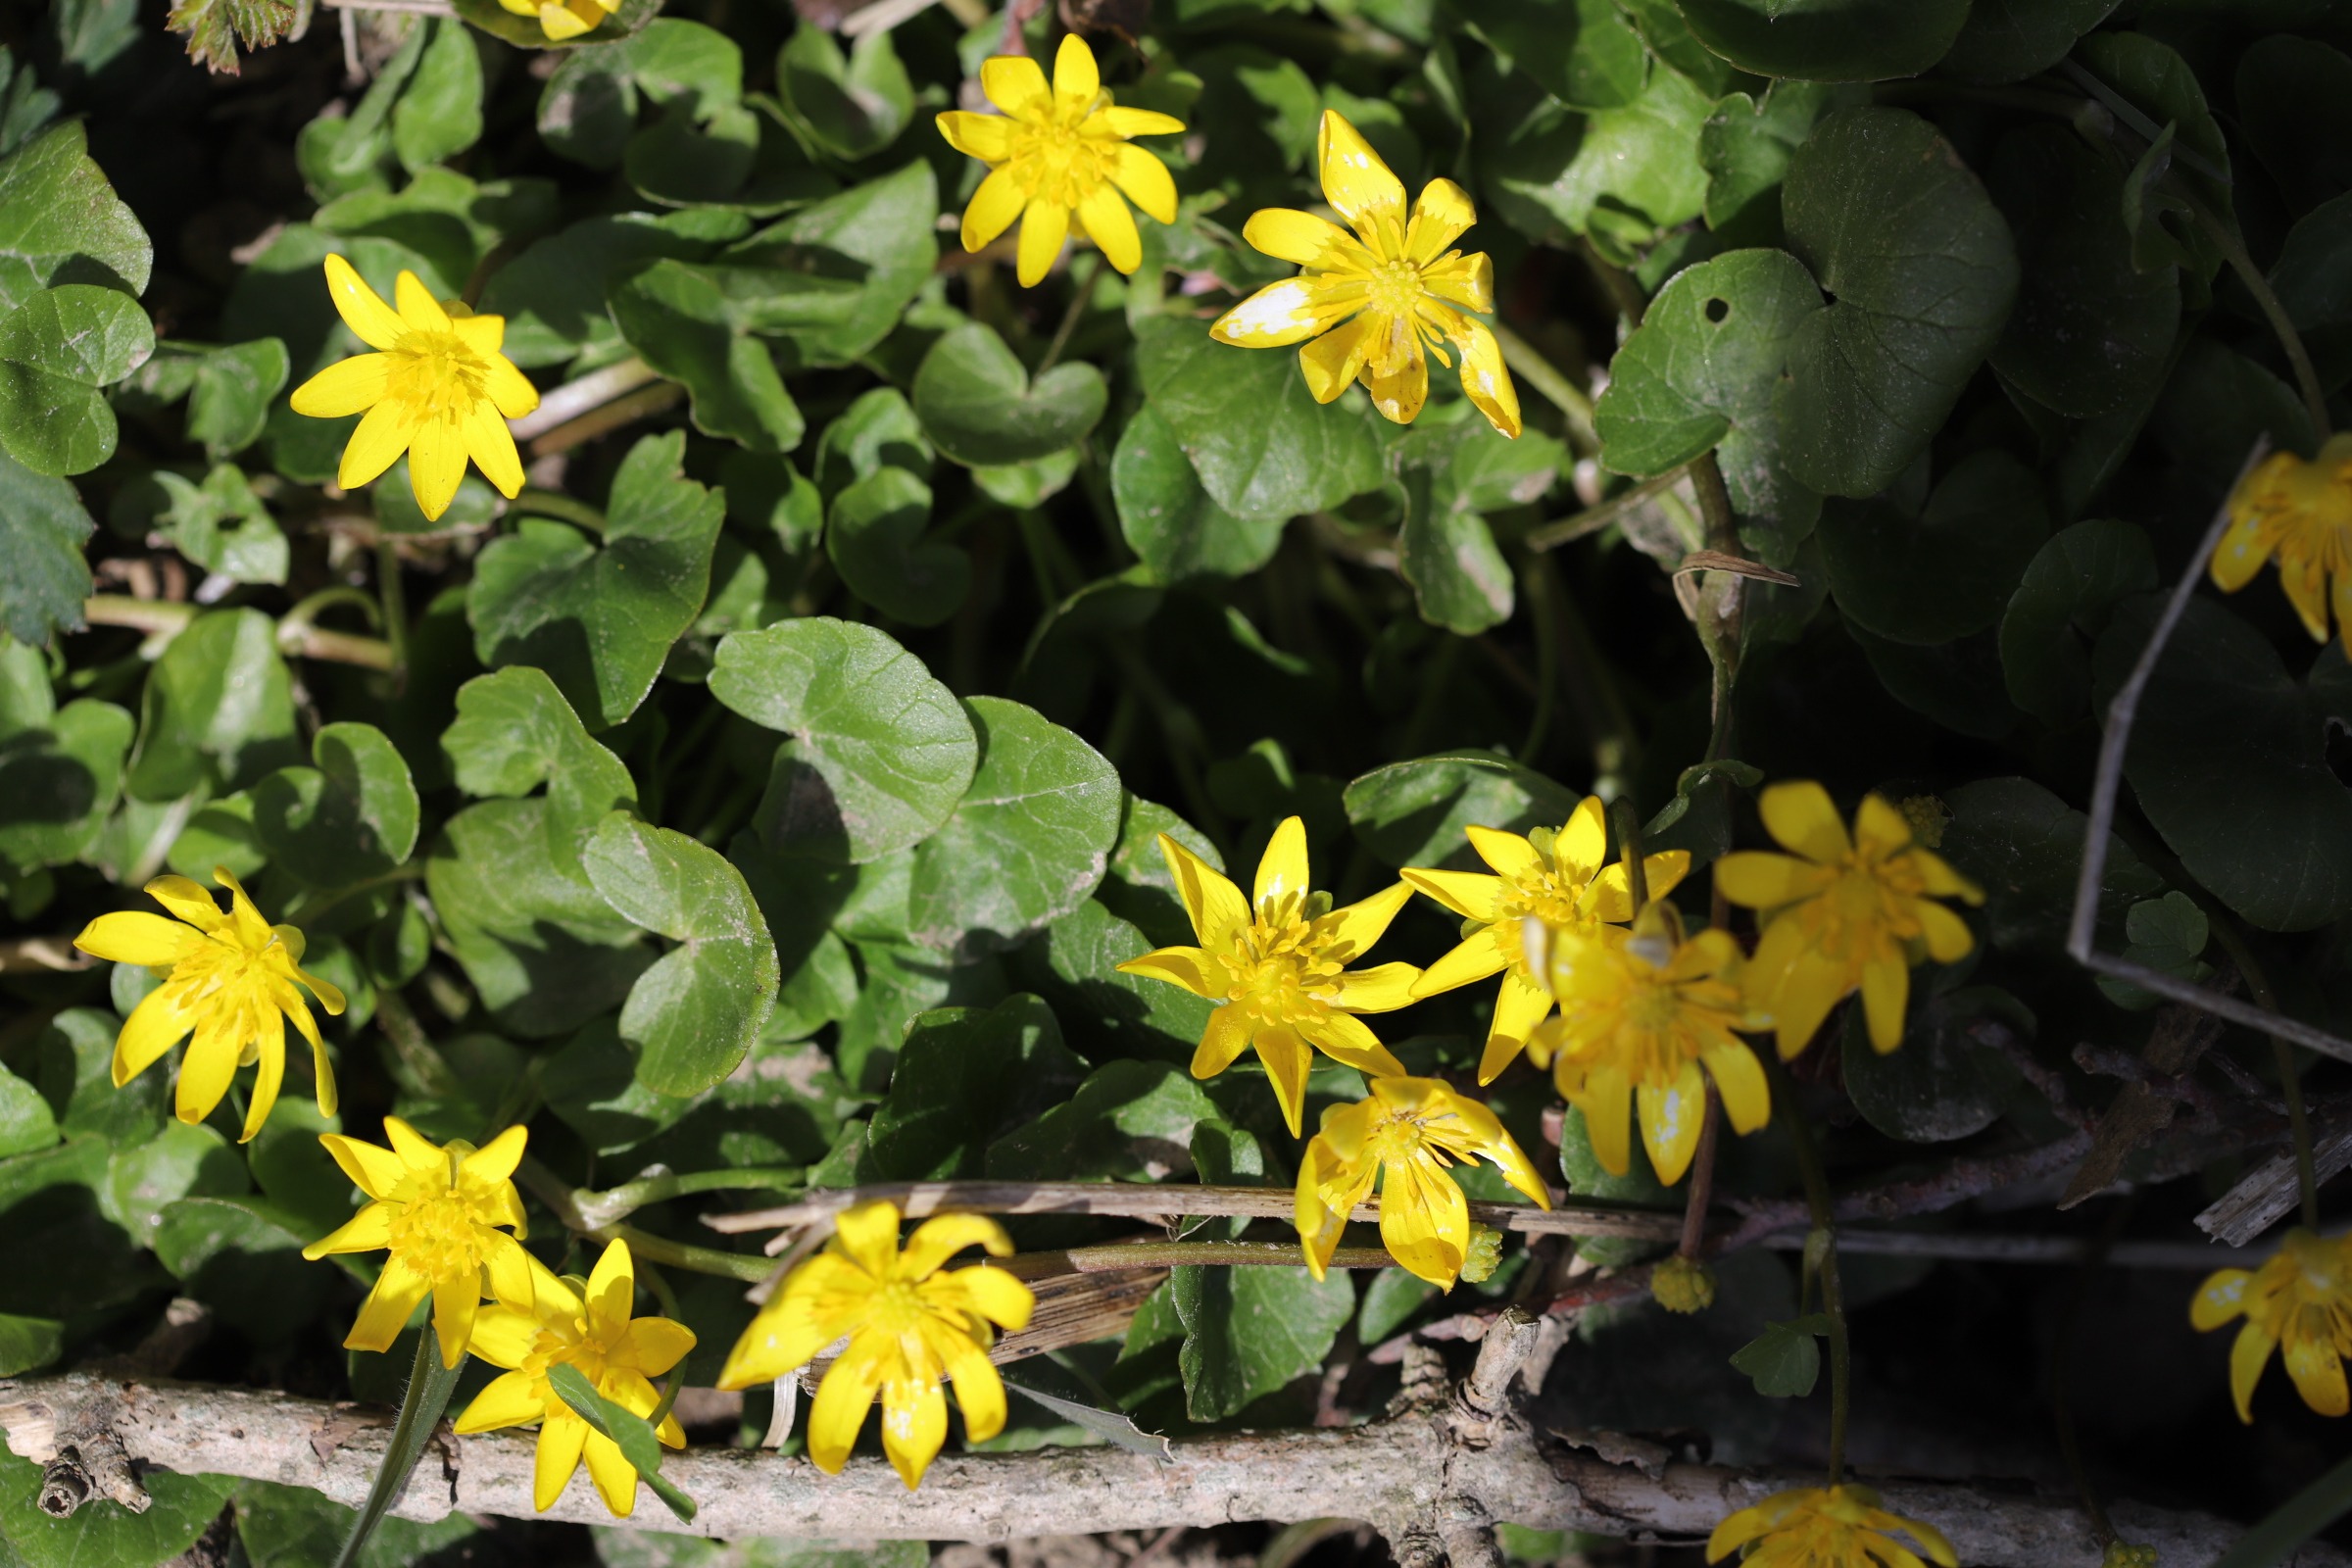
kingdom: Plantae
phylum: Tracheophyta
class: Magnoliopsida
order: Ranunculales
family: Ranunculaceae
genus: Ficaria
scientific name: Ficaria verna
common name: Vorterod
